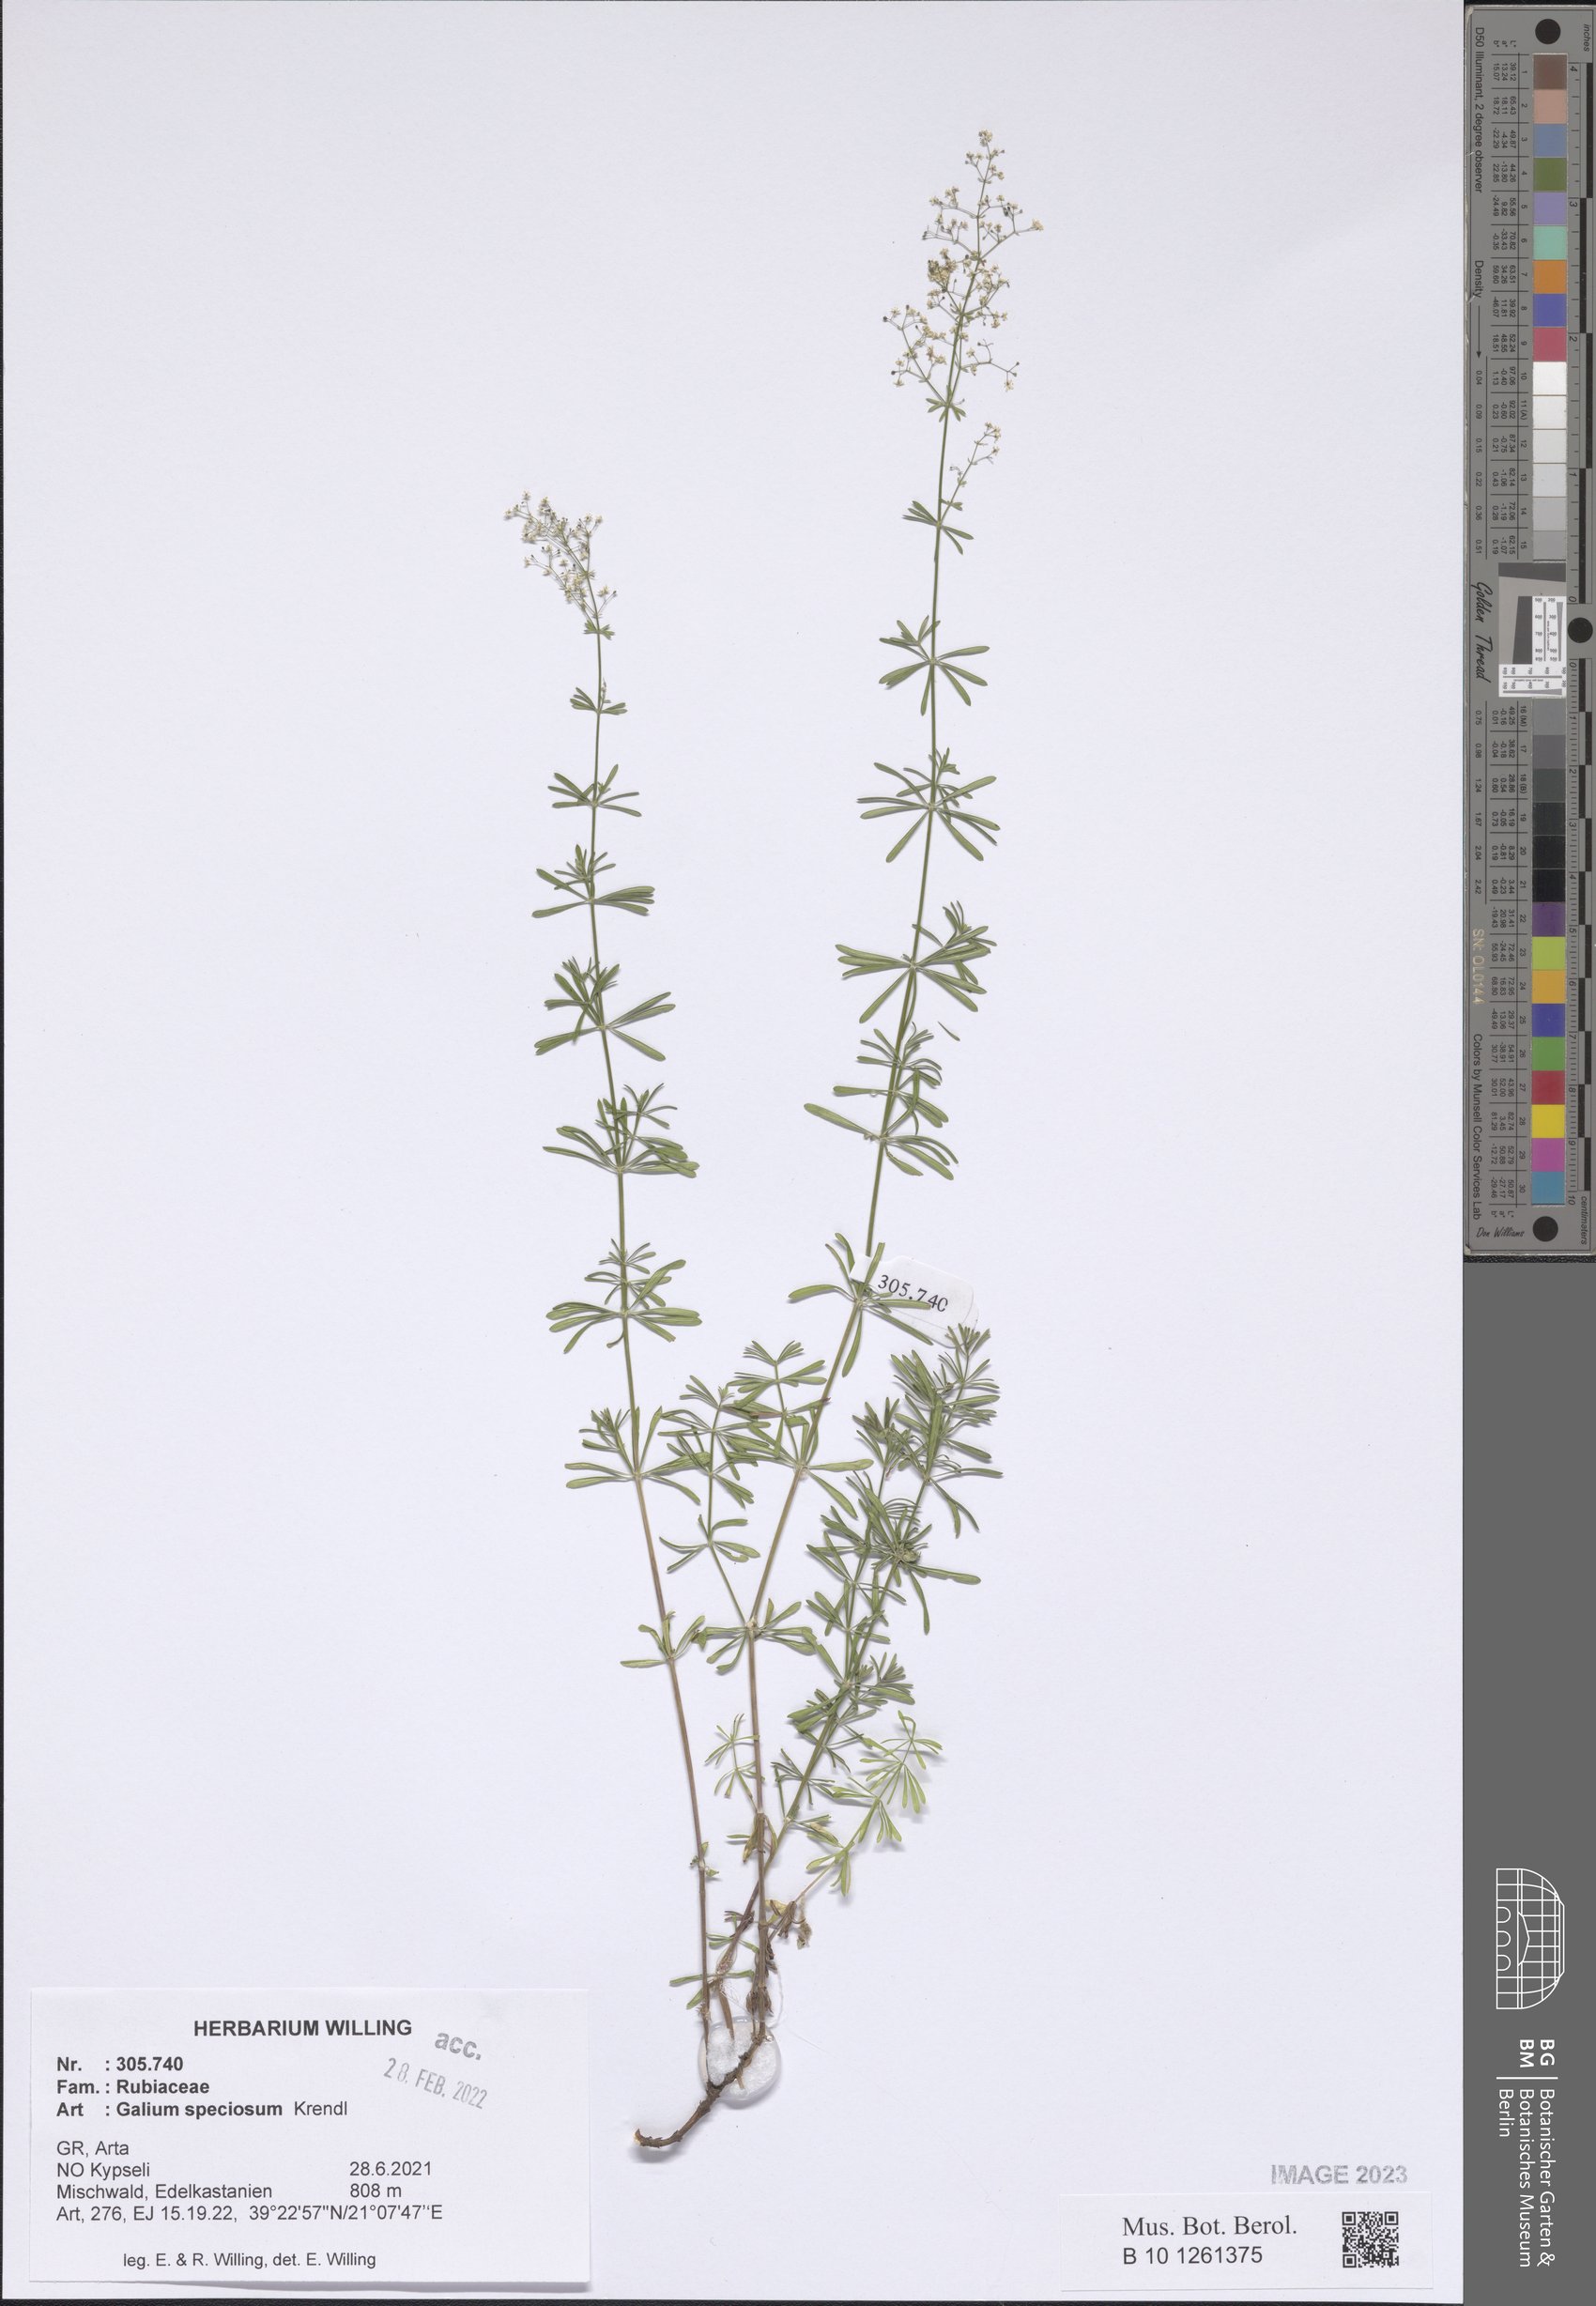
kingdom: Plantae
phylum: Tracheophyta
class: Magnoliopsida
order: Gentianales
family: Rubiaceae
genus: Galium
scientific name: Galium speciosum
